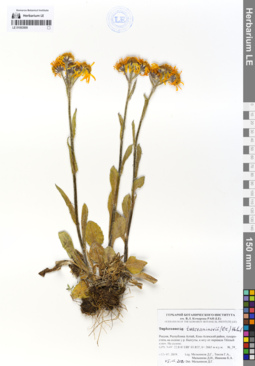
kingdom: Plantae
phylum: Tracheophyta
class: Magnoliopsida
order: Asterales
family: Asteraceae
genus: Tephroseris
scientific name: Tephroseris turczaninovii
